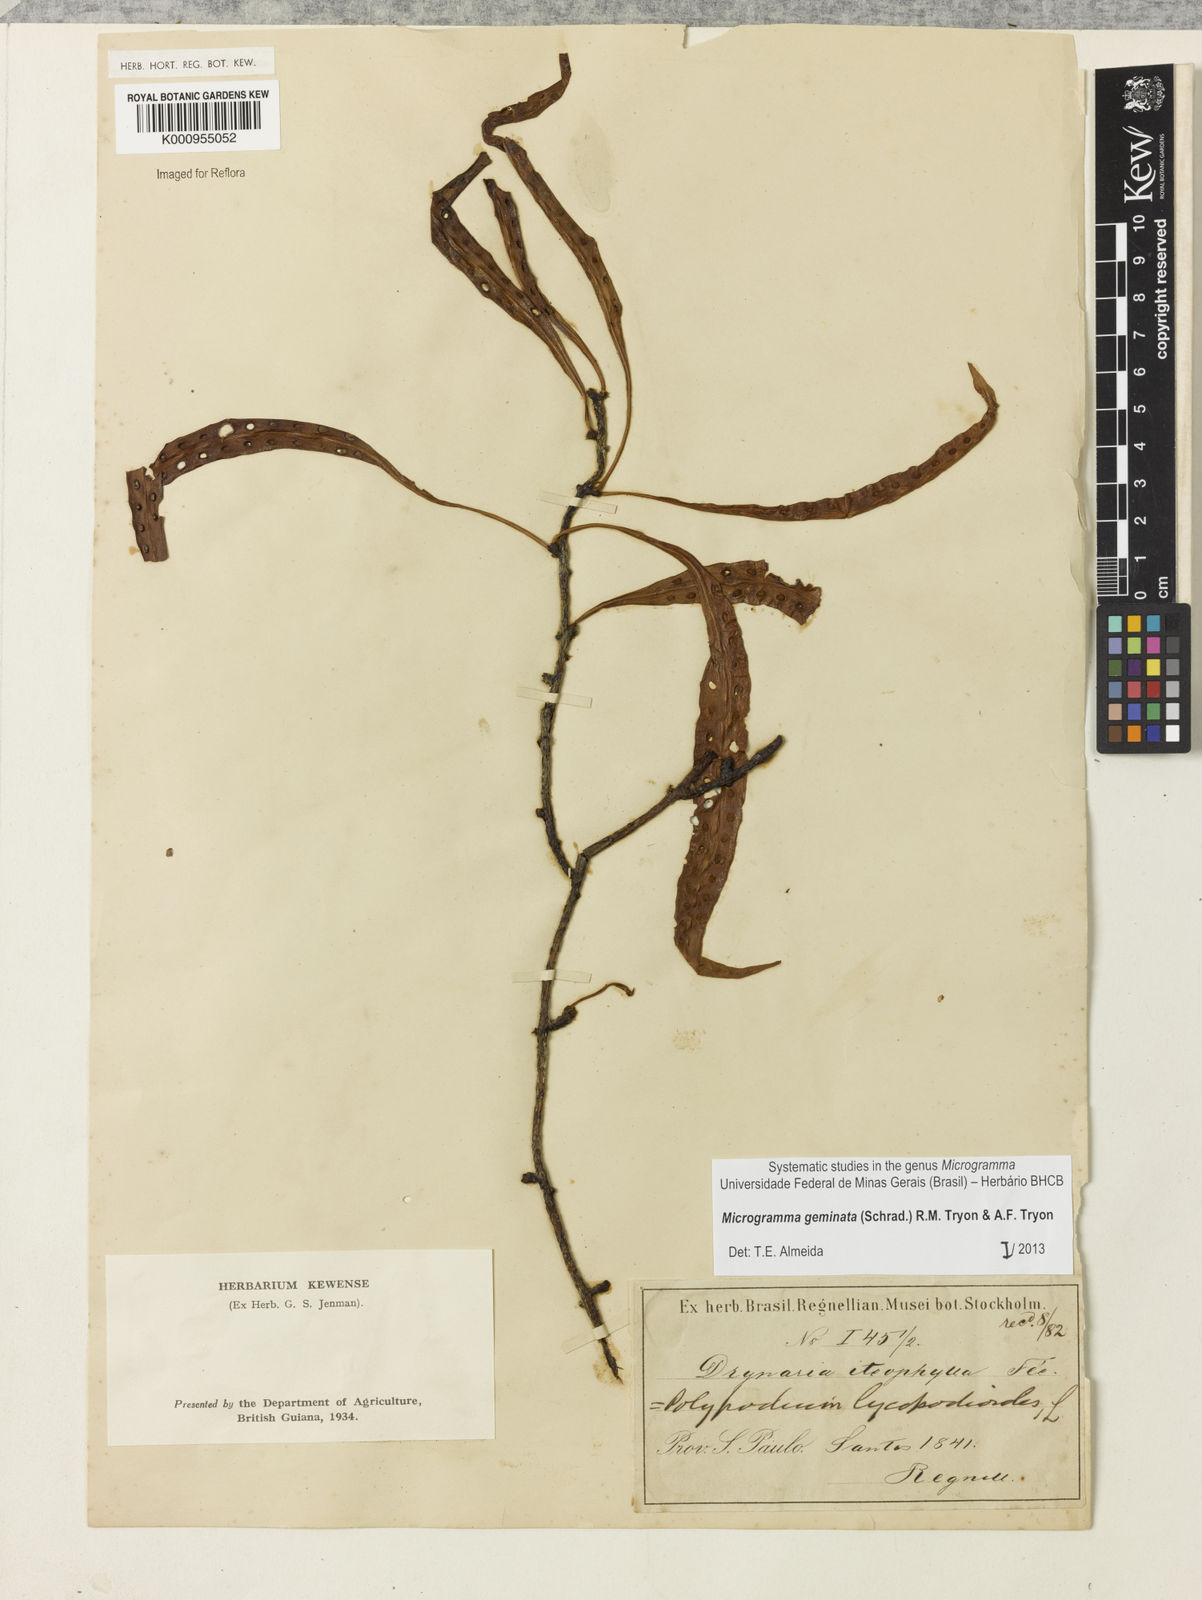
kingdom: Plantae
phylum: Tracheophyta
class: Polypodiopsida
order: Polypodiales
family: Polypodiaceae
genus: Microgramma
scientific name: Microgramma geminata
